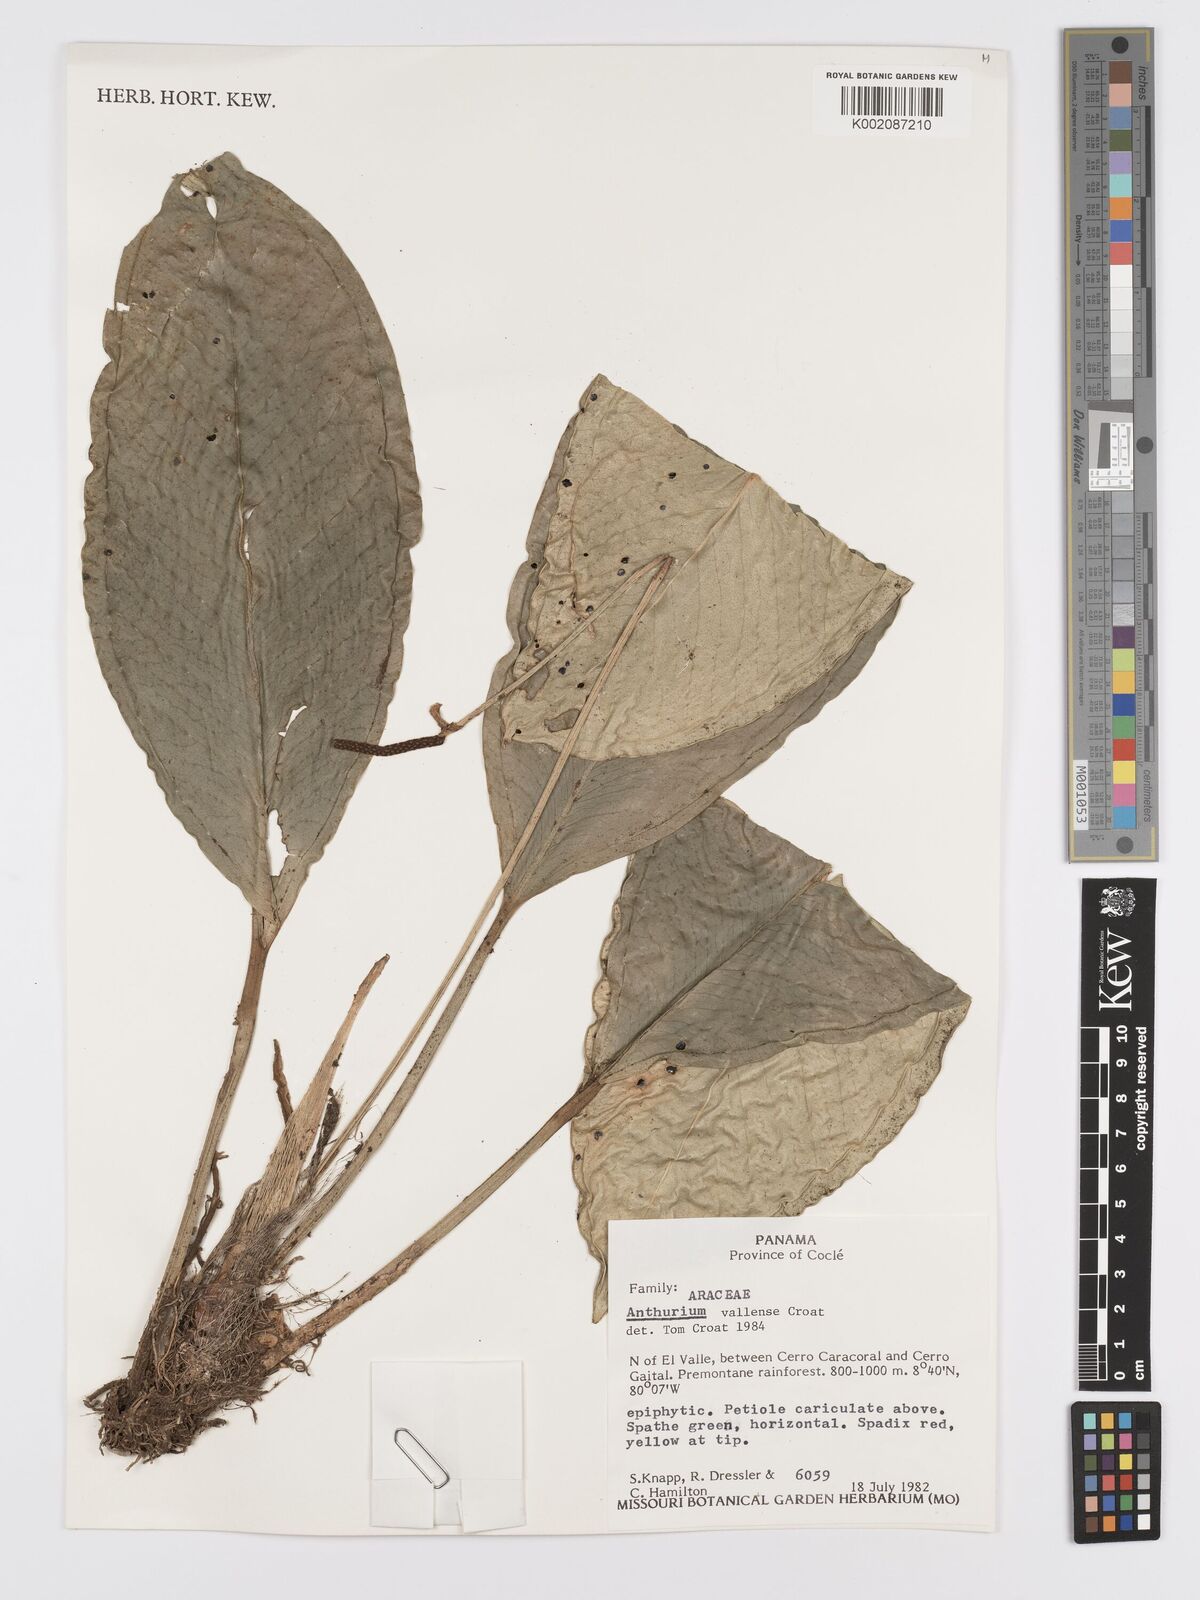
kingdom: Plantae
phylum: Tracheophyta
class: Liliopsida
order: Alismatales
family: Araceae
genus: Anthurium
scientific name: Anthurium vallense
